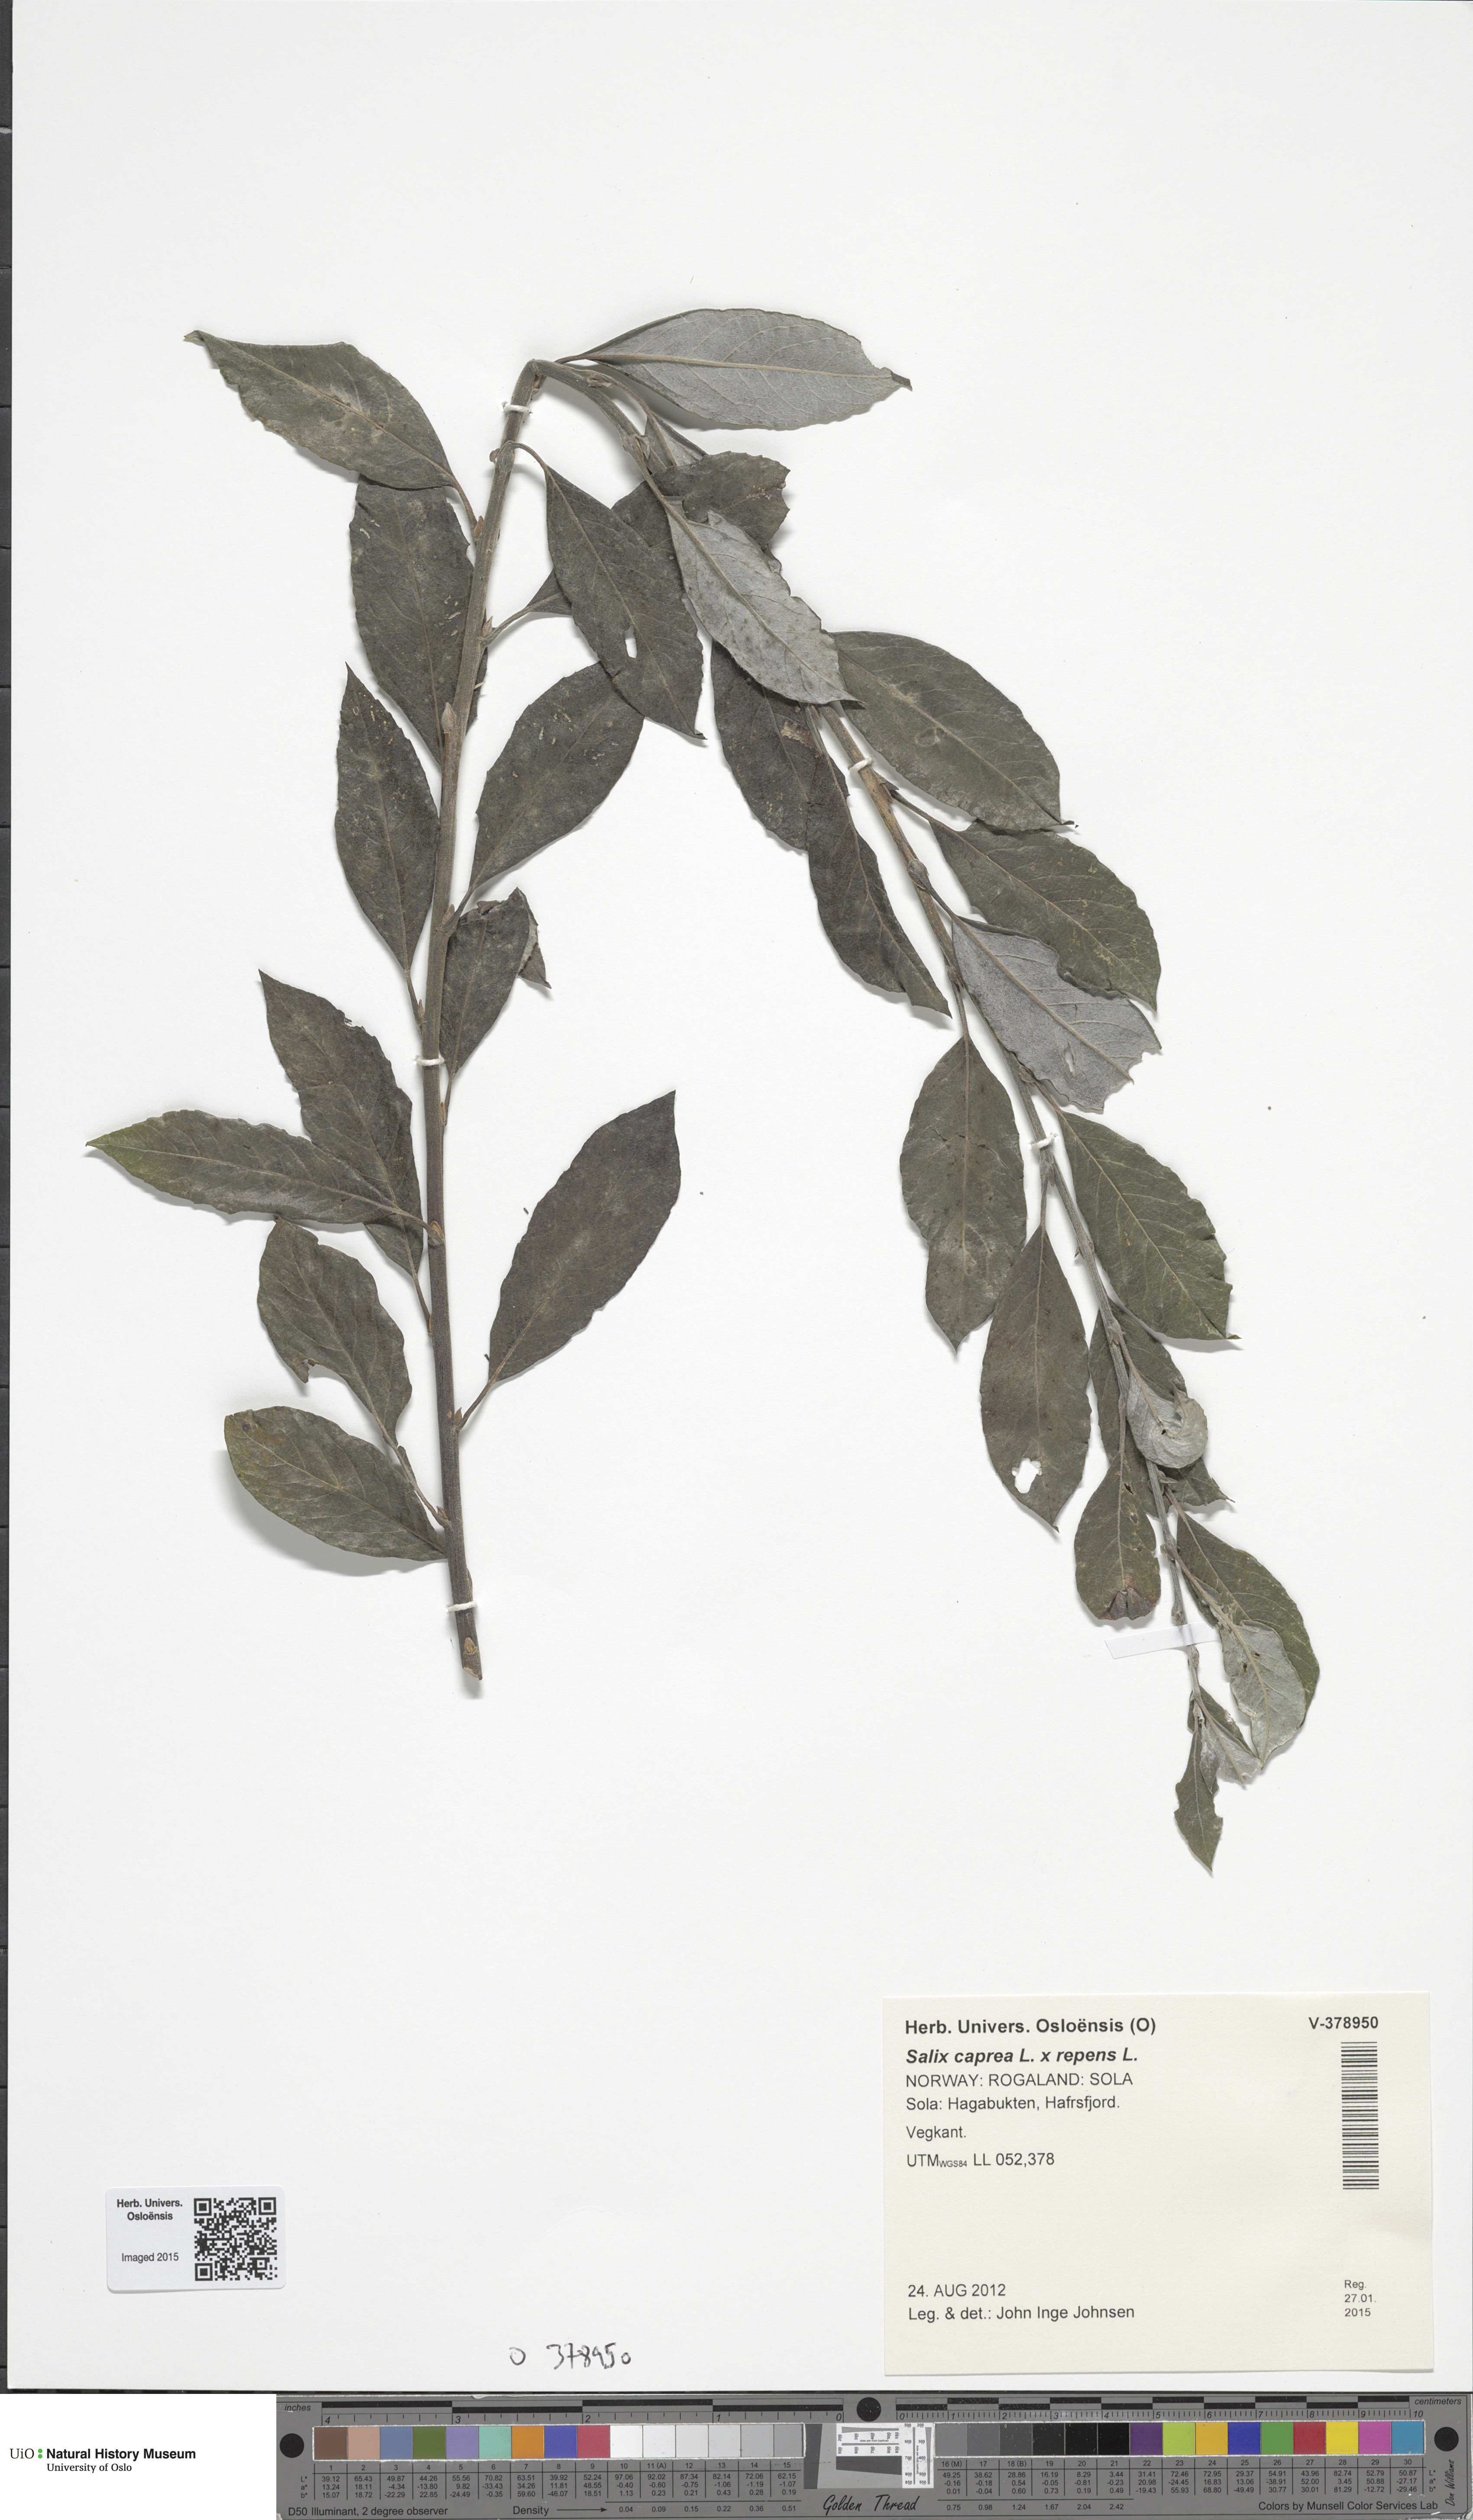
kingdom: Plantae
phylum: Tracheophyta
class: Magnoliopsida
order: Malpighiales
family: Salicaceae
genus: Salix
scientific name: Salix
